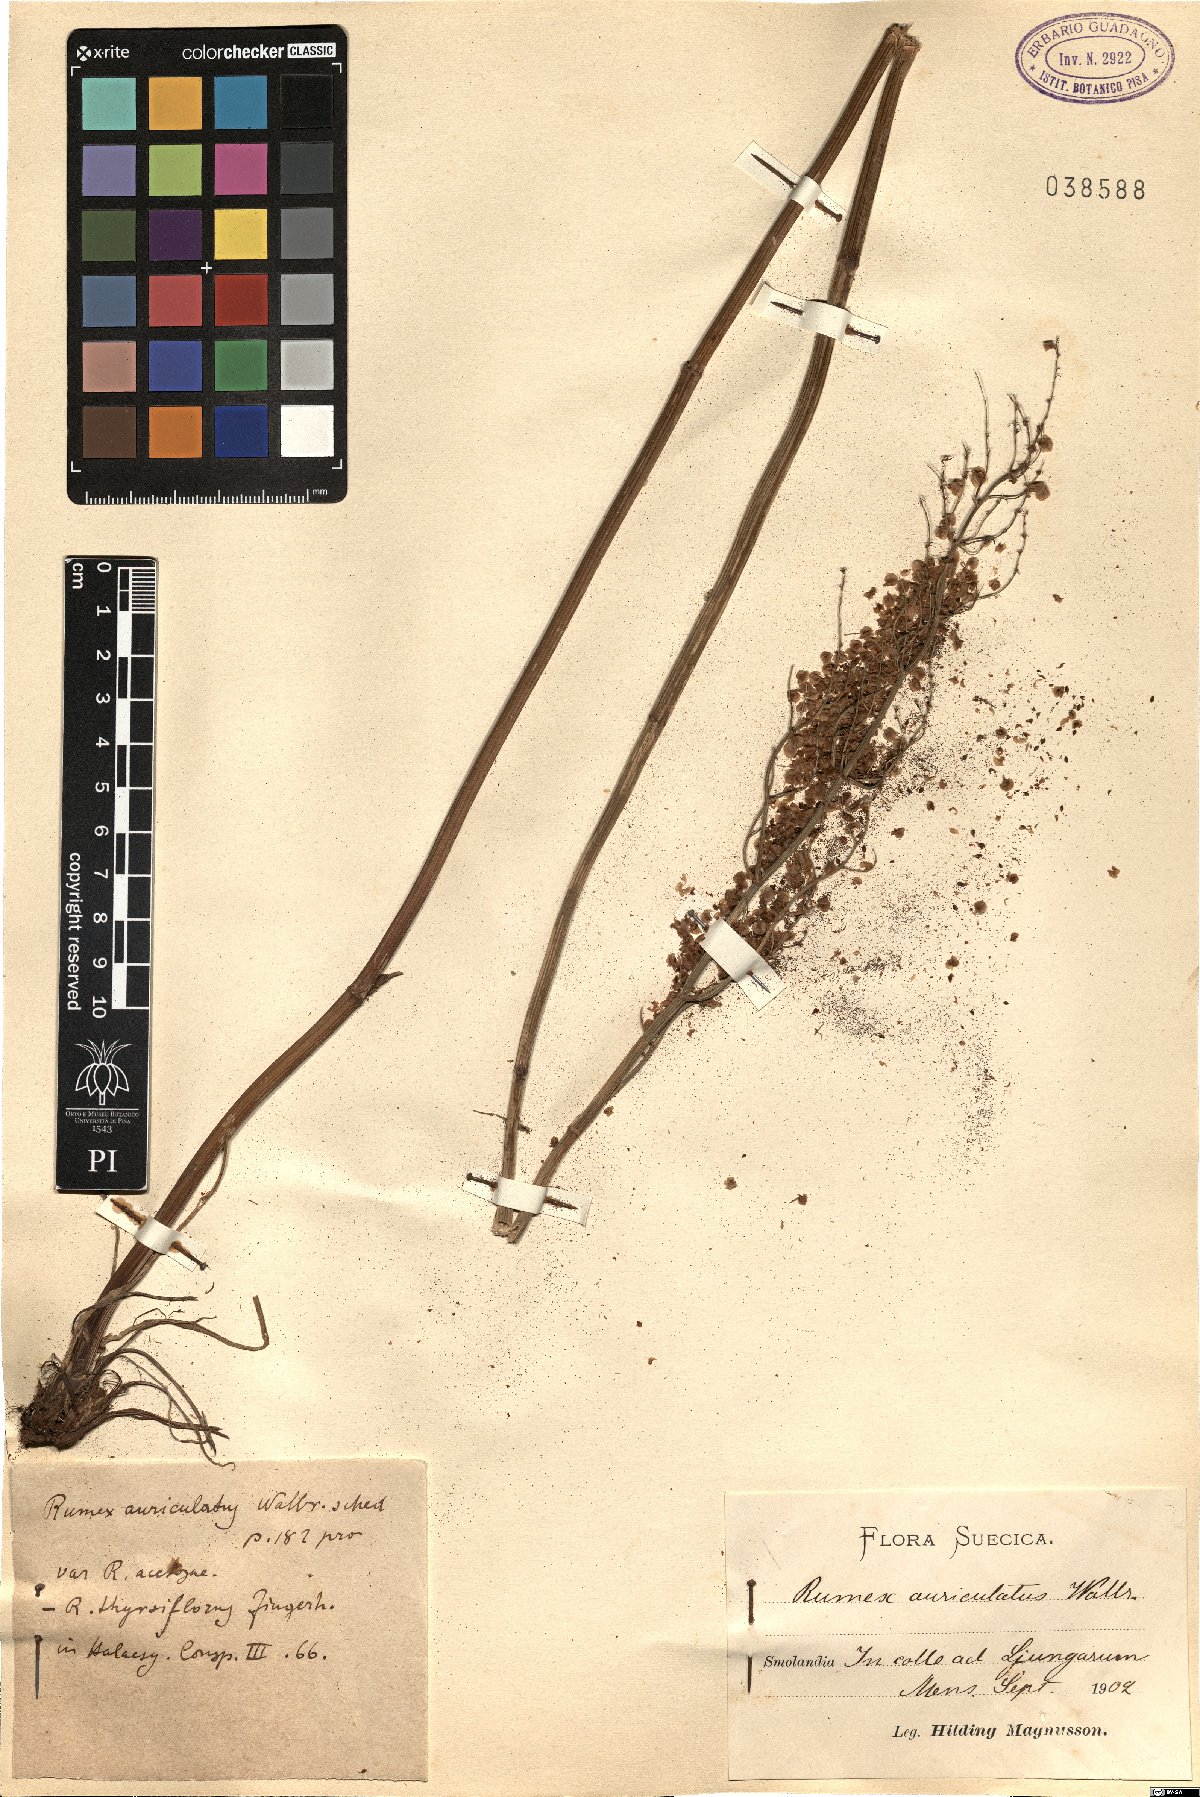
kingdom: Plantae
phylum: Tracheophyta
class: Magnoliopsida
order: Caryophyllales
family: Polygonaceae
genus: Rumex
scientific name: Rumex thyrsiflorus
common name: Garden sorrel
